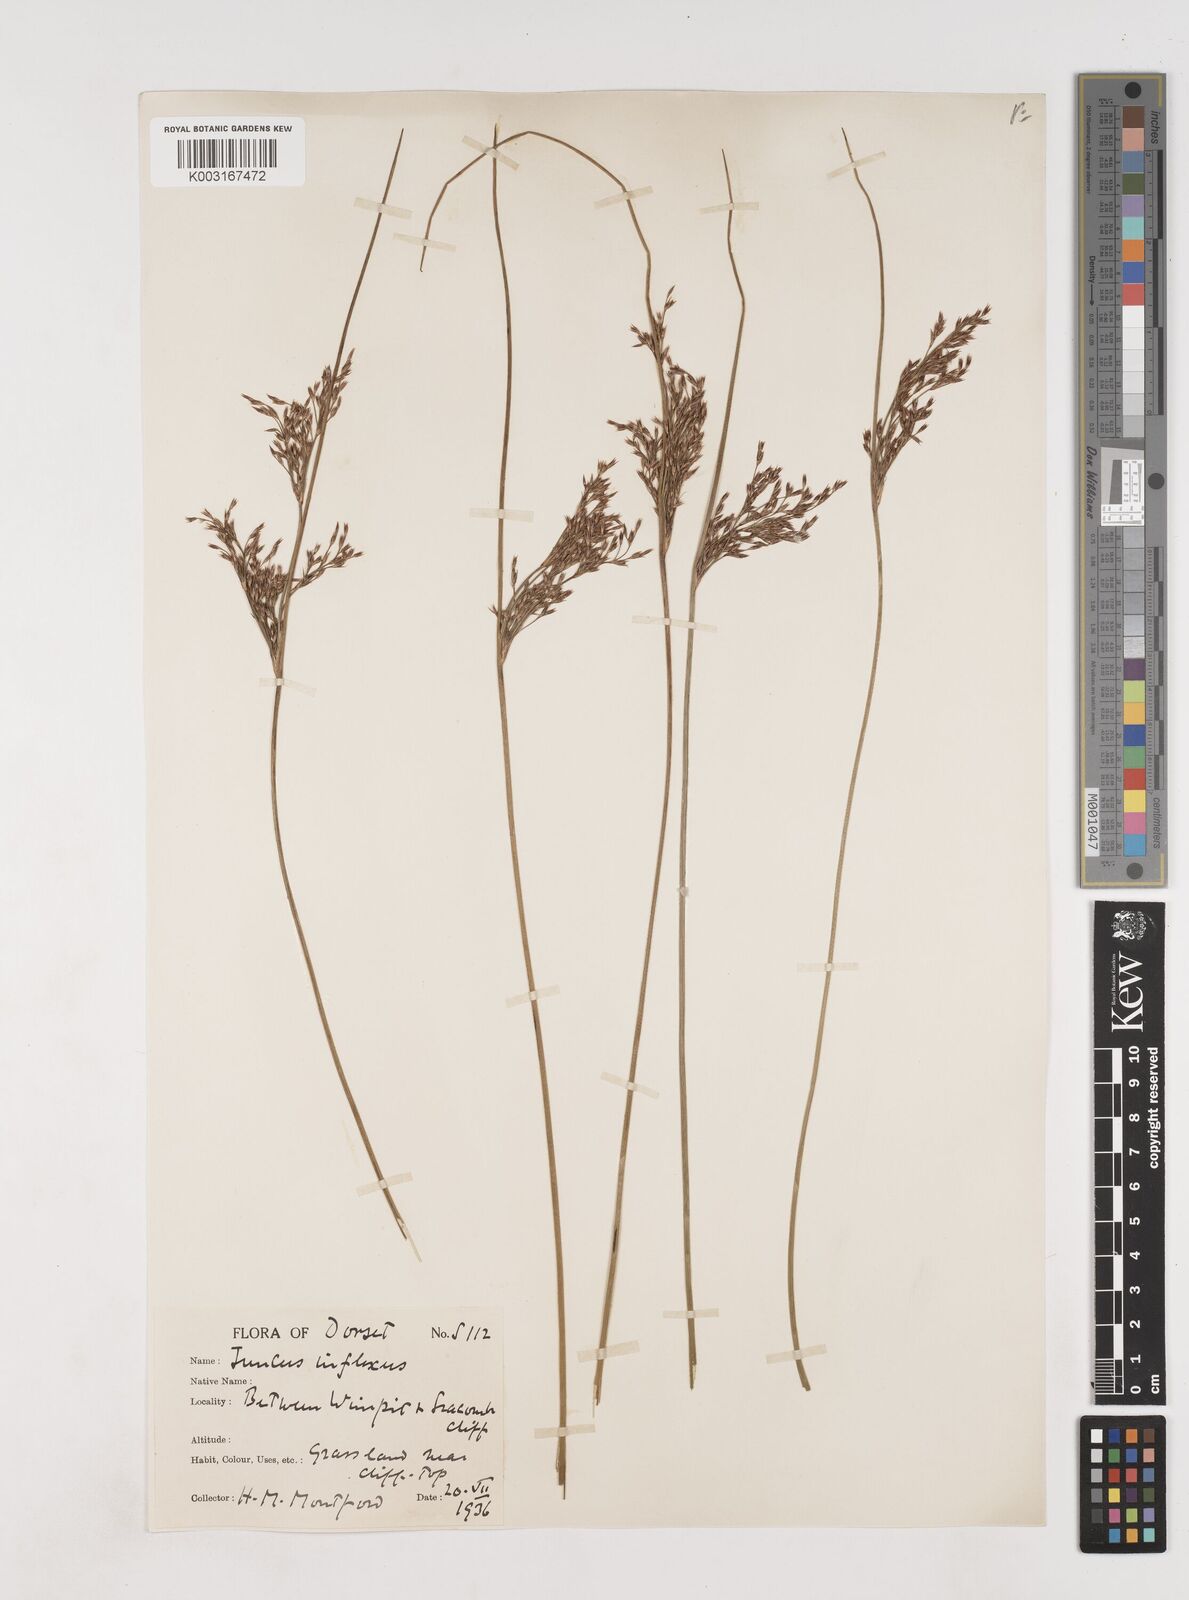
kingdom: Plantae
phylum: Tracheophyta
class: Liliopsida
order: Poales
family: Juncaceae
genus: Juncus
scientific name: Juncus inflexus
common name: Hard rush
